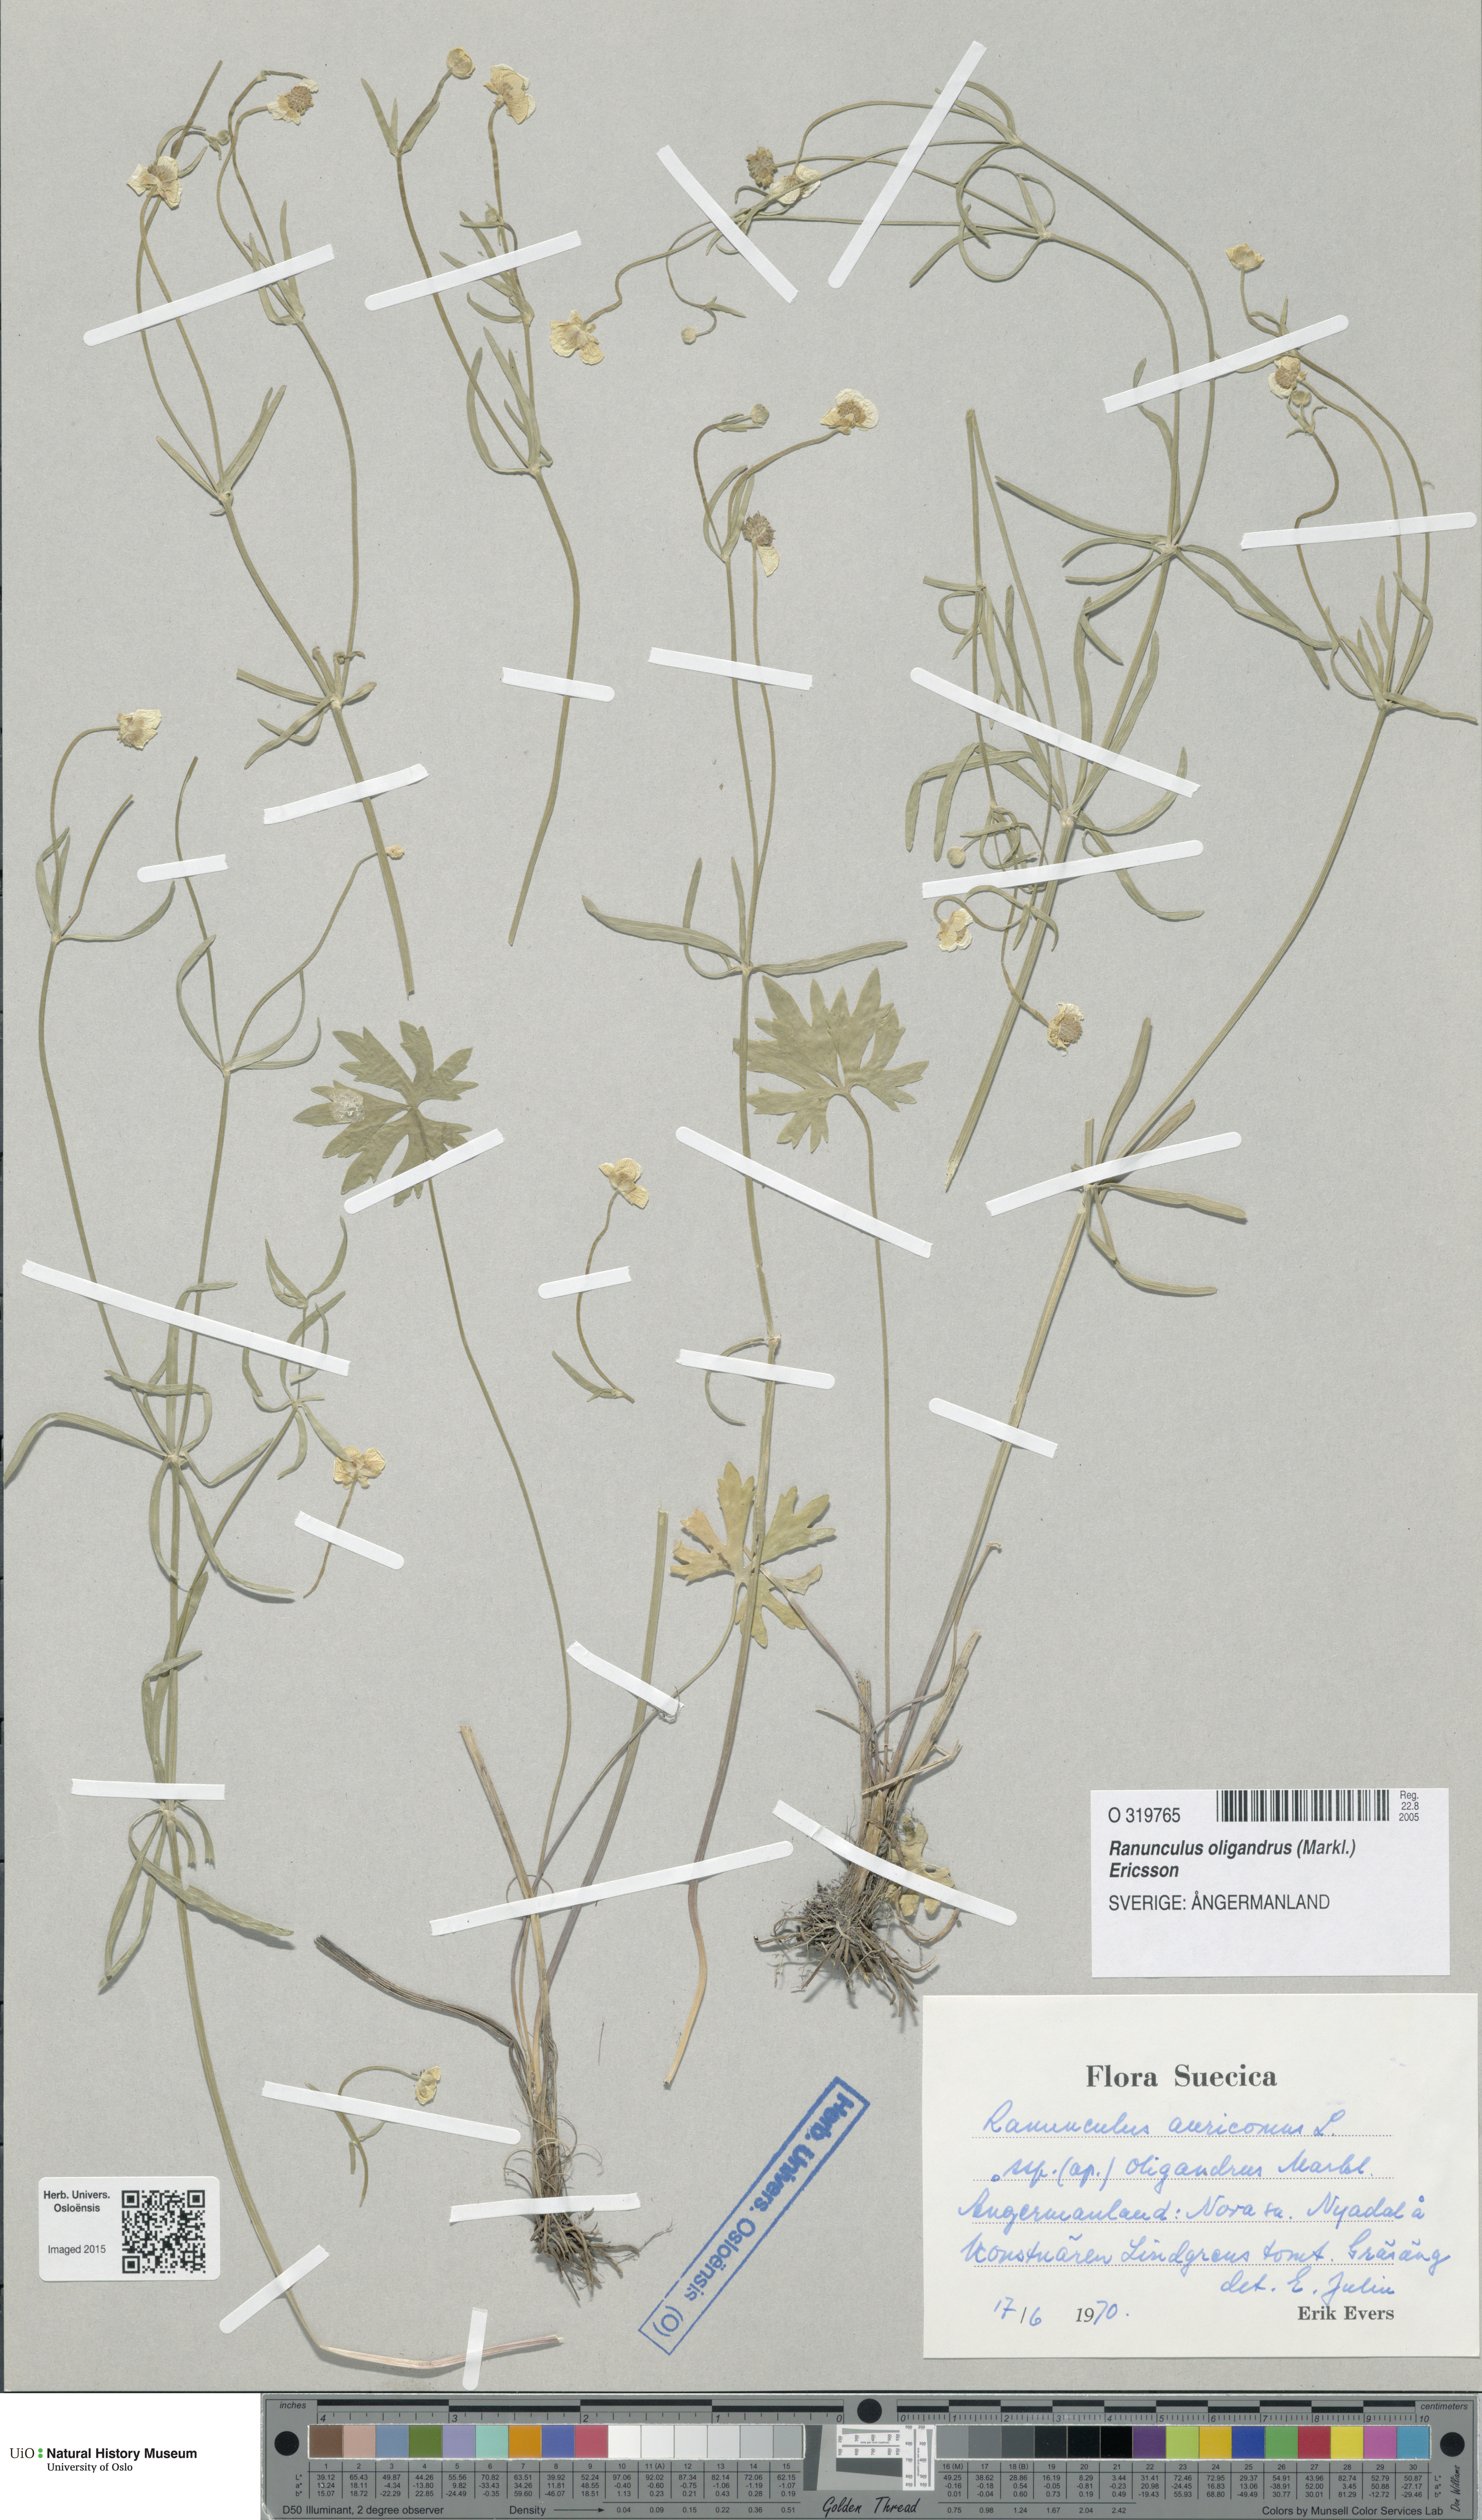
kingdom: Plantae
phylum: Tracheophyta
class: Magnoliopsida
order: Ranunculales
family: Ranunculaceae
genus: Ranunculus
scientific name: Ranunculus oligandrus
